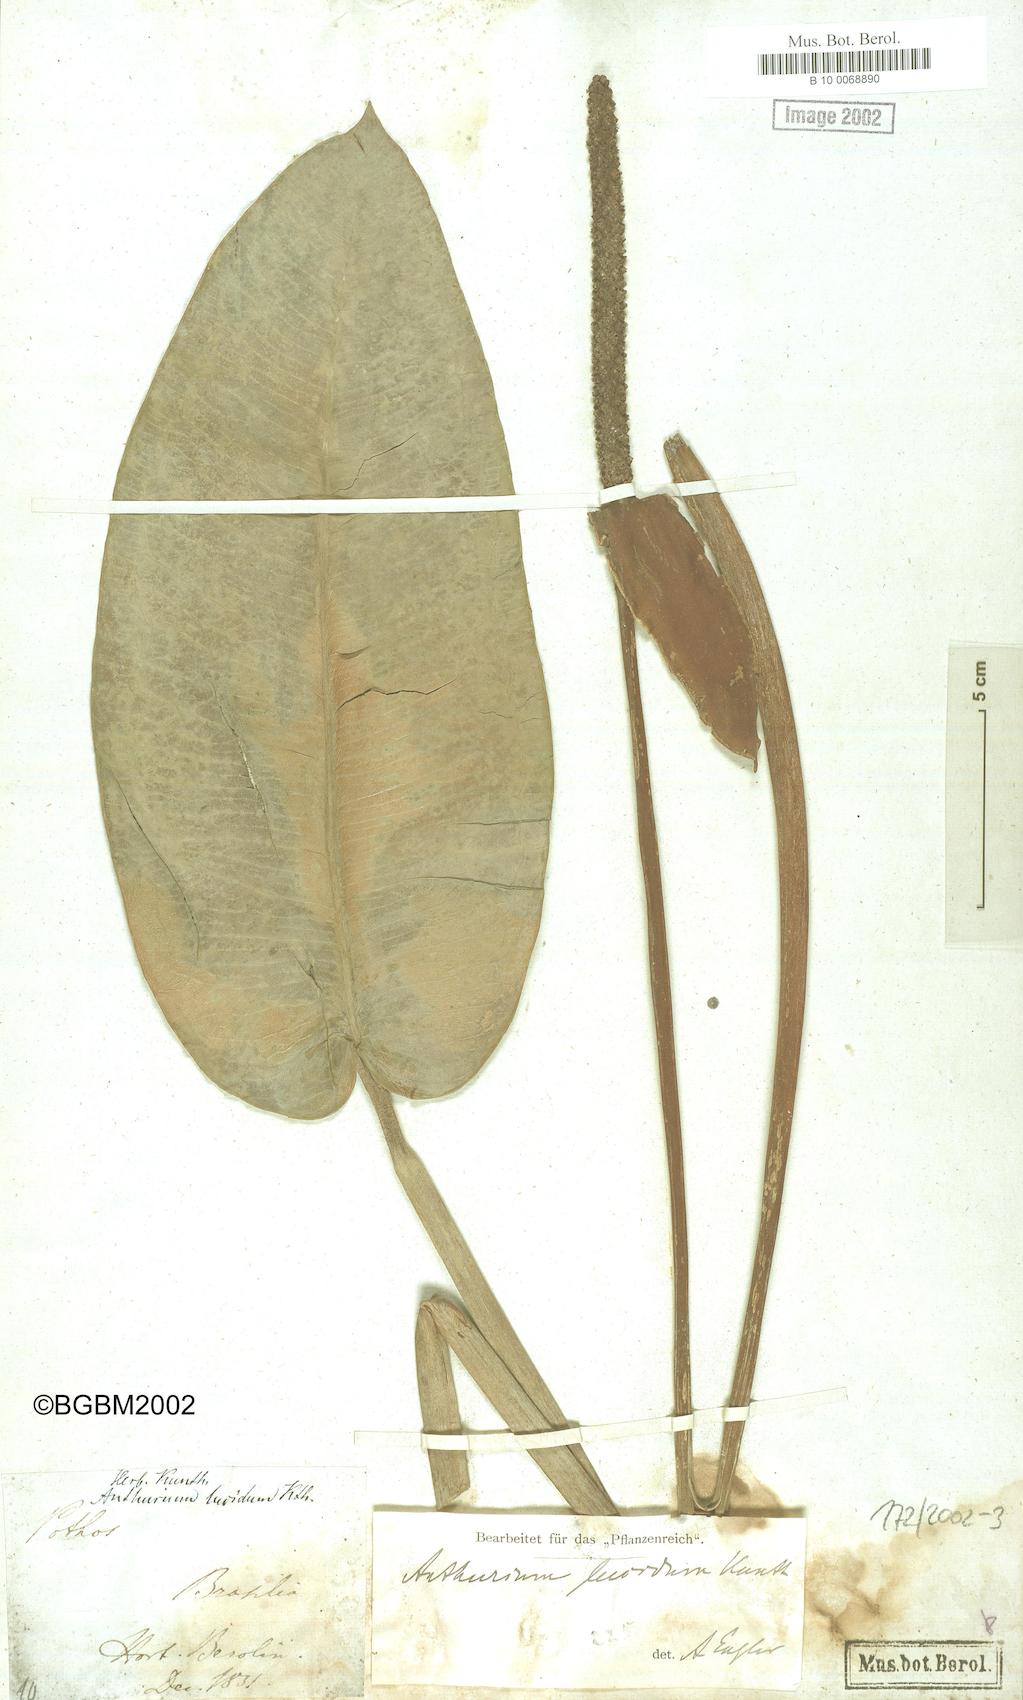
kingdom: Plantae
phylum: Tracheophyta
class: Liliopsida
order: Alismatales
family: Araceae
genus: Anthurium
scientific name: Anthurium lucidum
